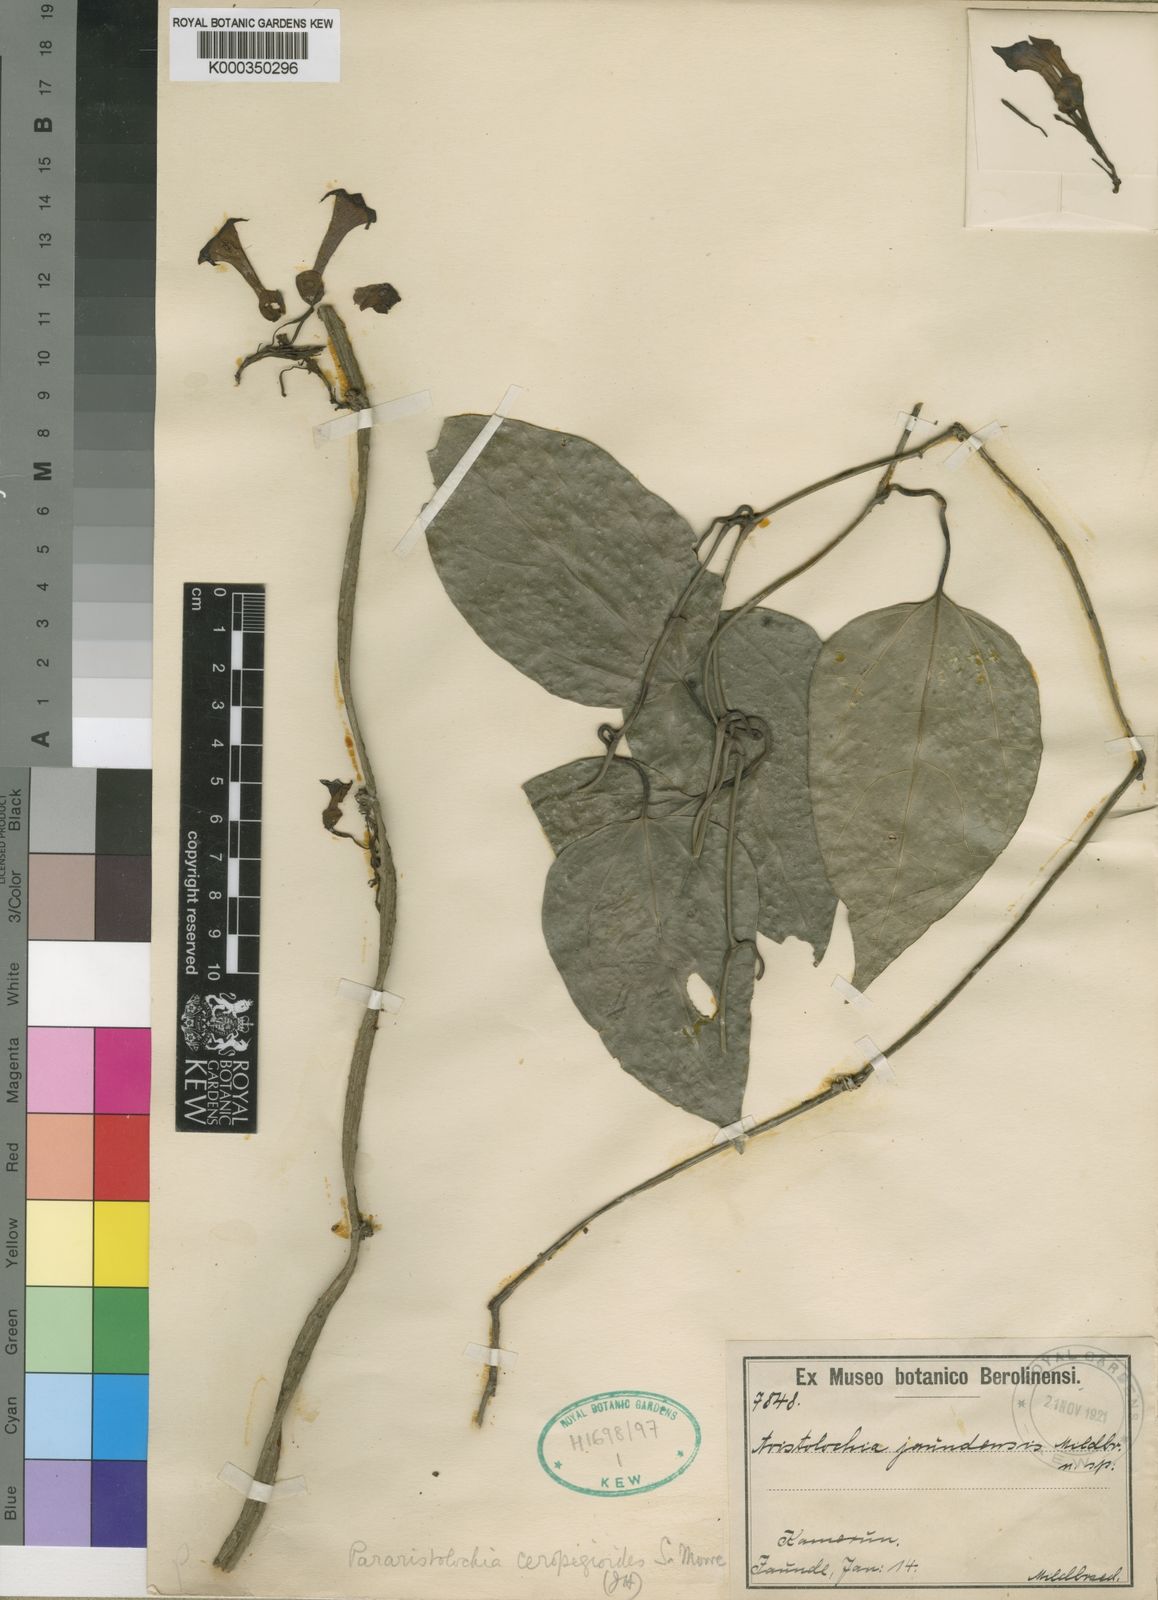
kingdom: Plantae
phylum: Tracheophyta
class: Magnoliopsida
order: Piperales
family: Aristolochiaceae
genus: Aristolochia
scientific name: Aristolochia
